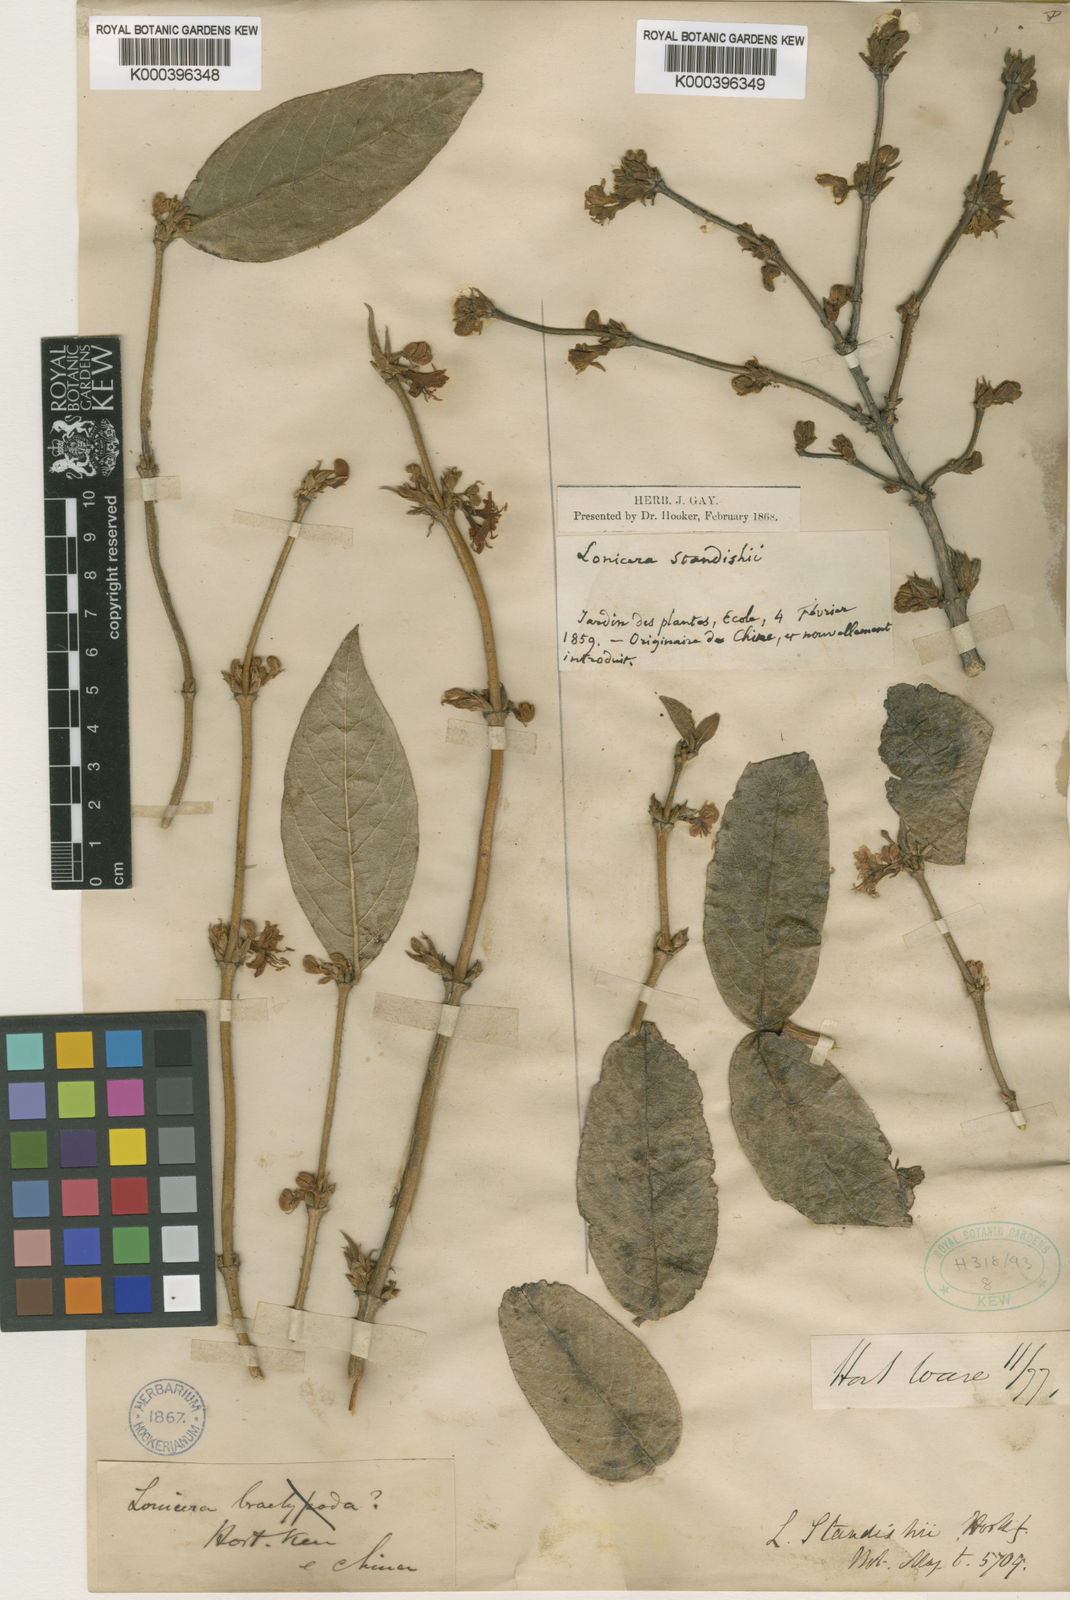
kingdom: Plantae
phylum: Tracheophyta
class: Magnoliopsida
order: Dipsacales
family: Caprifoliaceae
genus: Lonicera
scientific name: Lonicera fragrantissima
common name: Fragrant honeysuckle
